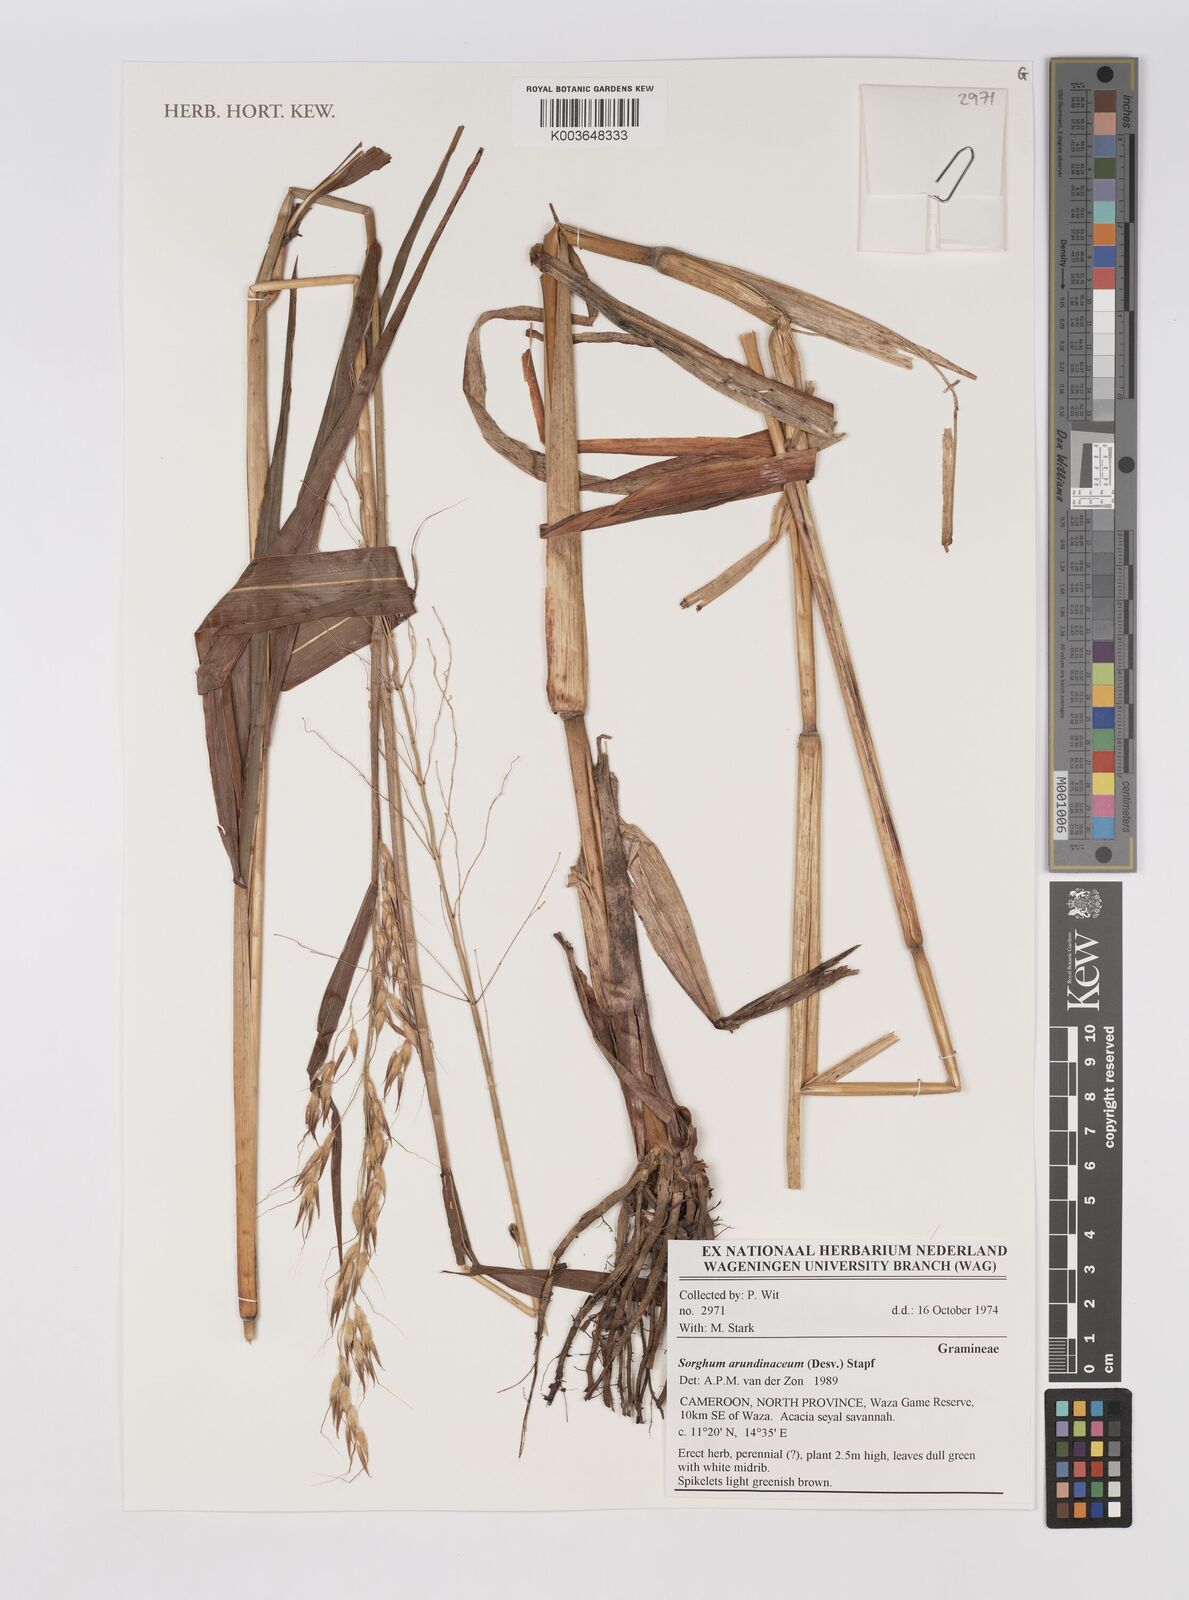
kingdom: Plantae
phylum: Tracheophyta
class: Liliopsida
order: Poales
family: Poaceae
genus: Sorghum
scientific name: Sorghum arundinaceum
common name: Sorghum
